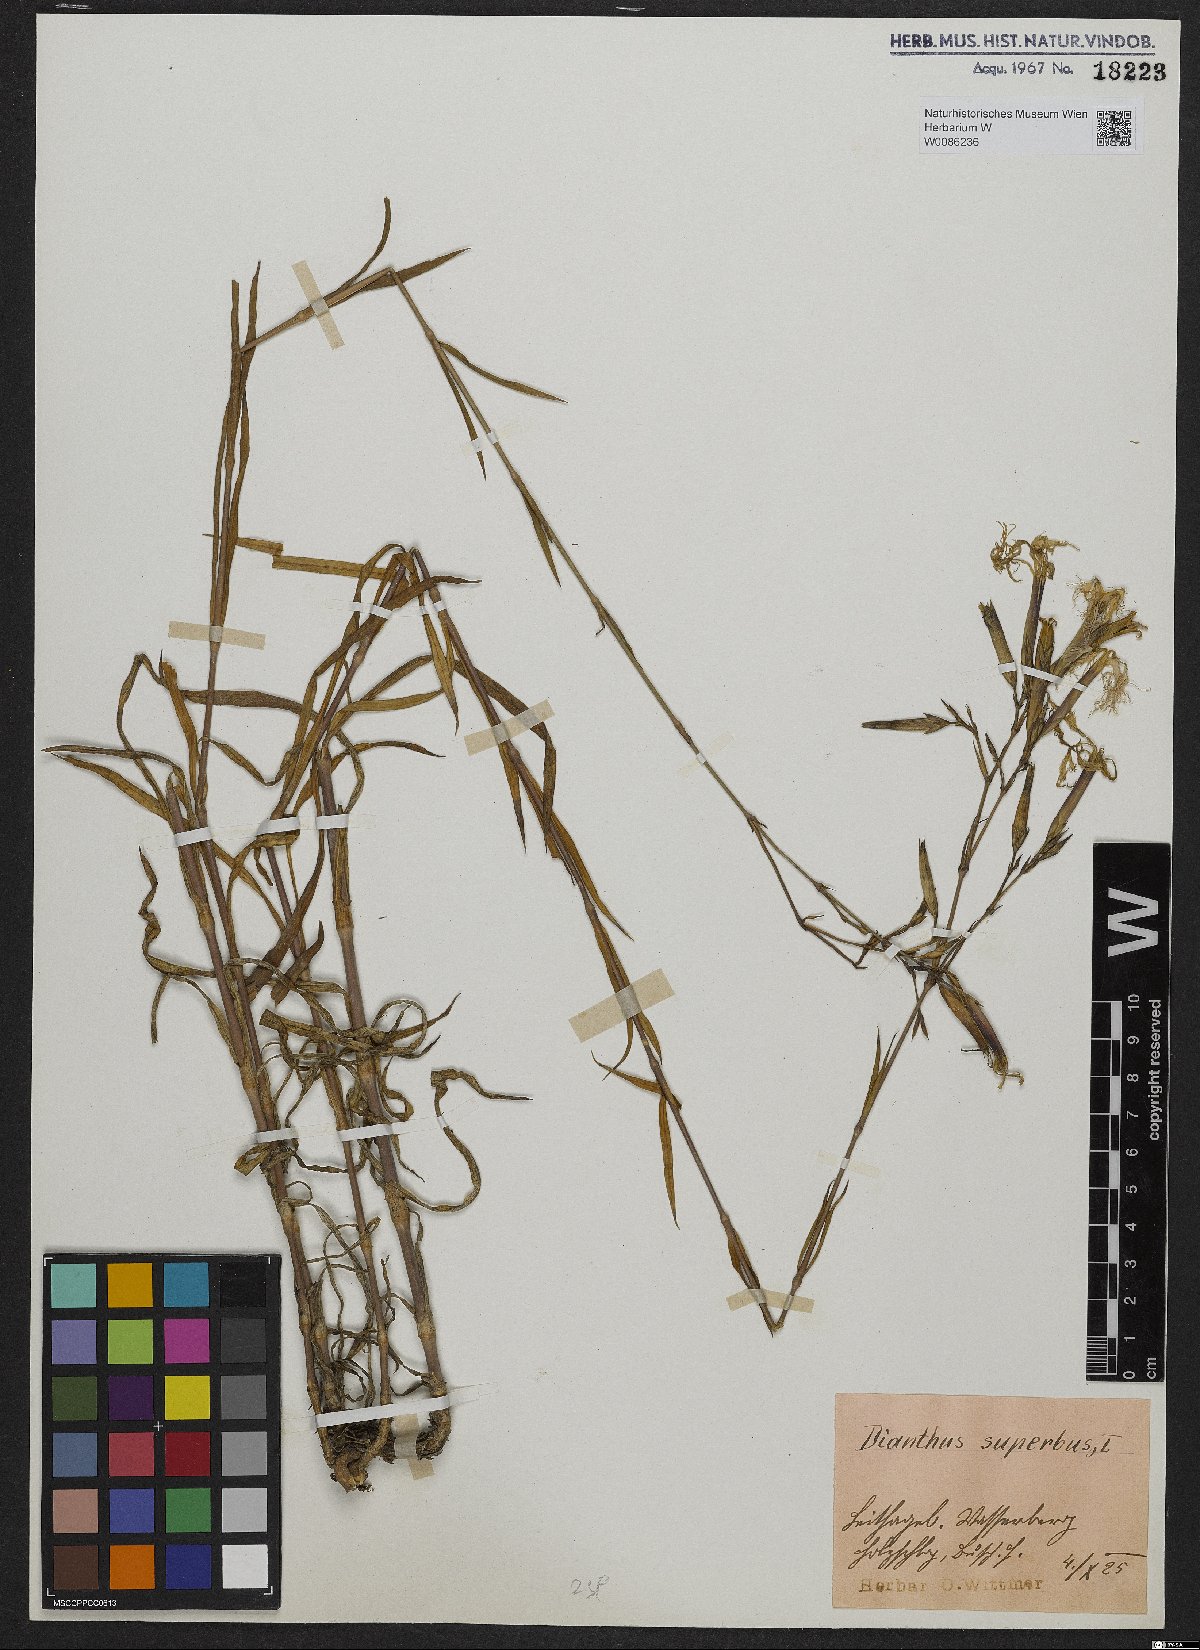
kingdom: Plantae
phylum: Tracheophyta
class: Magnoliopsida
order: Caryophyllales
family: Caryophyllaceae
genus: Dianthus
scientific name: Dianthus superbus
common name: Fringed pink
